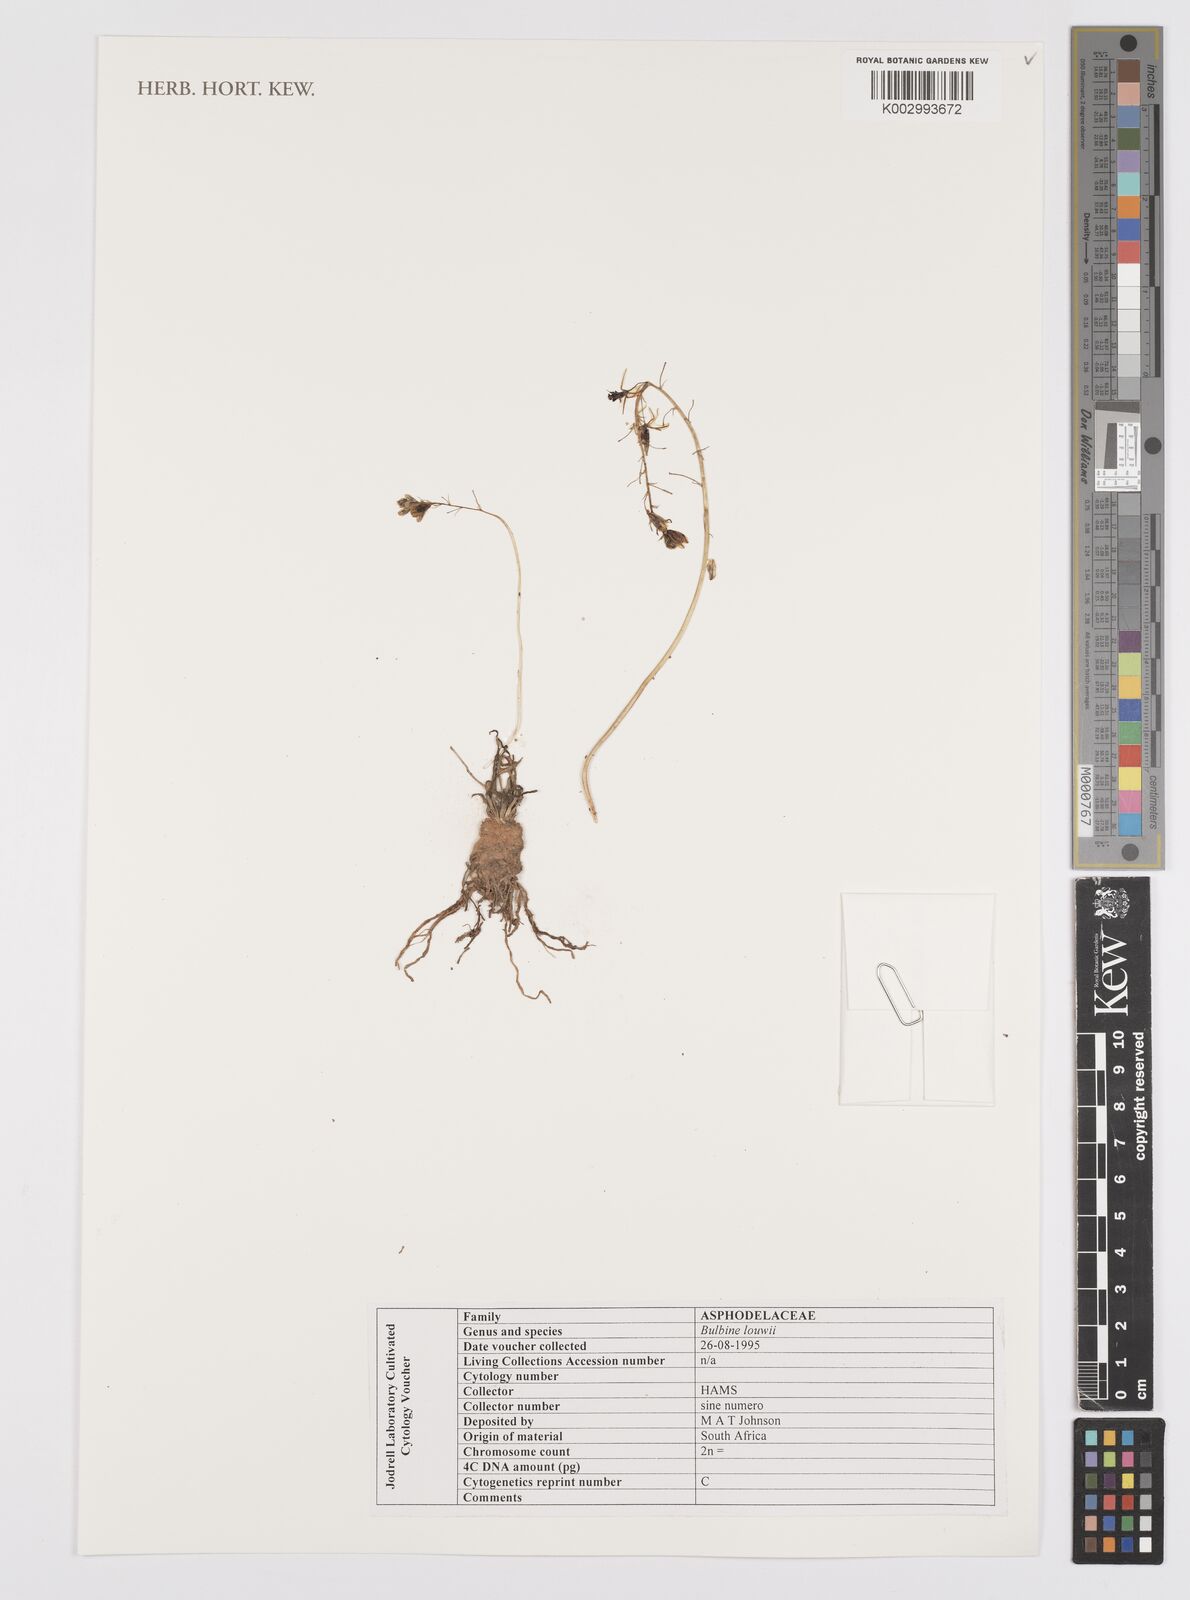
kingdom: Plantae
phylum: Tracheophyta
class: Liliopsida
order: Asparagales
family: Asphodelaceae
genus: Bulbine
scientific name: Bulbine louwii
